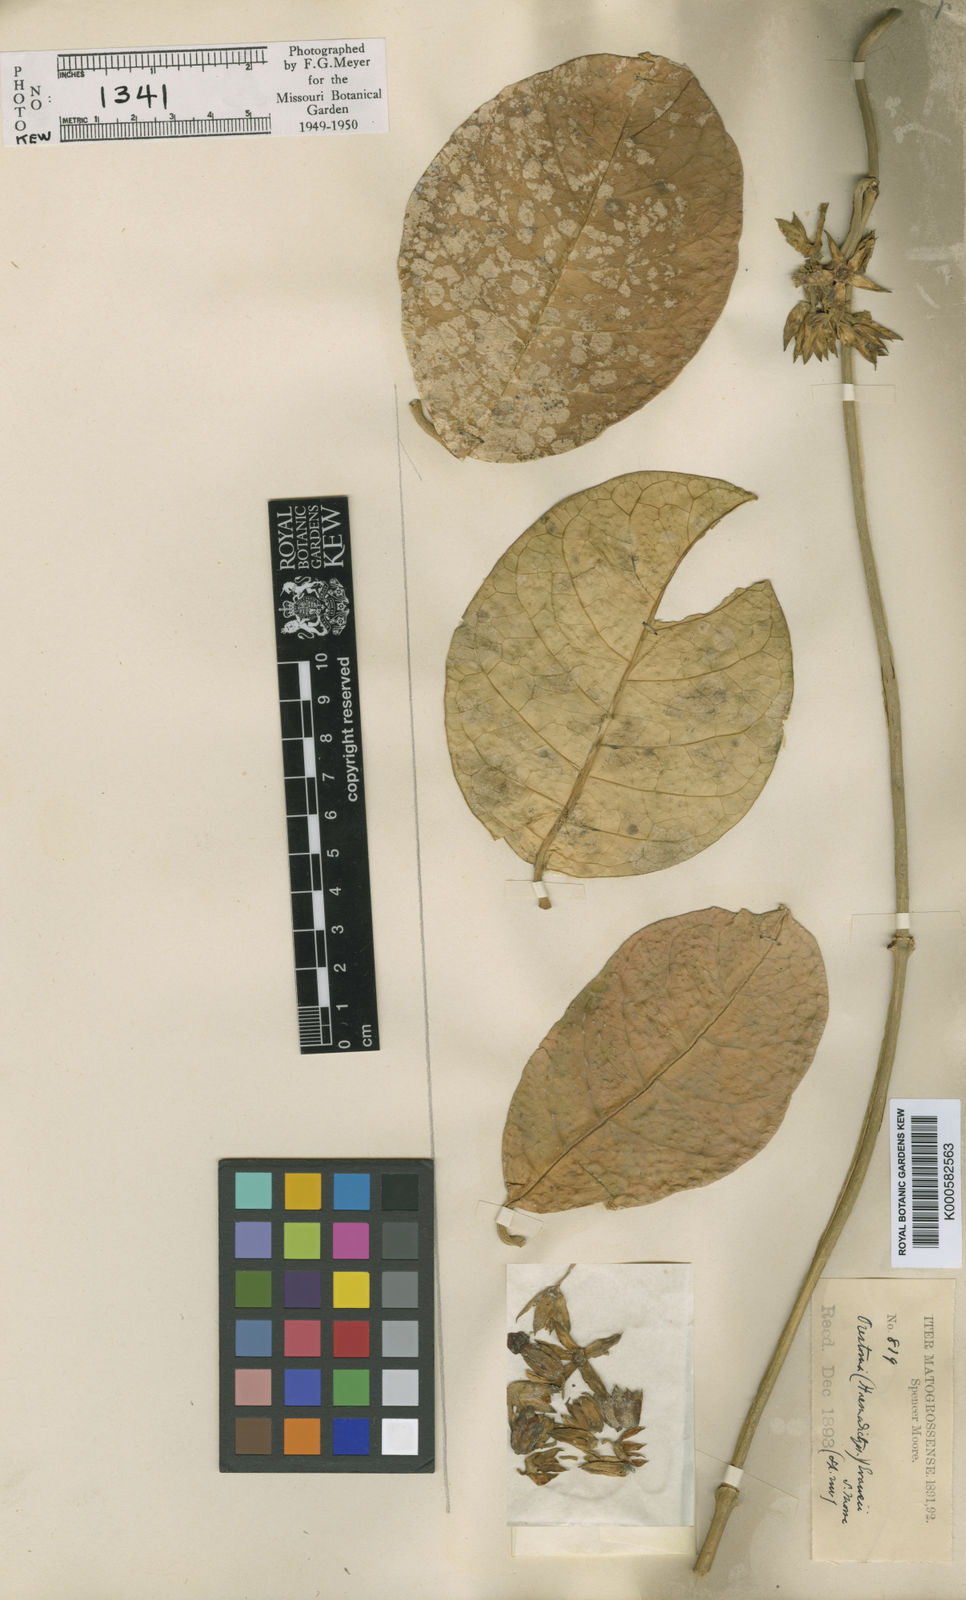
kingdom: Plantae
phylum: Tracheophyta
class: Magnoliopsida
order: Gentianales
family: Apocynaceae
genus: Prestonia
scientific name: Prestonia trifida
